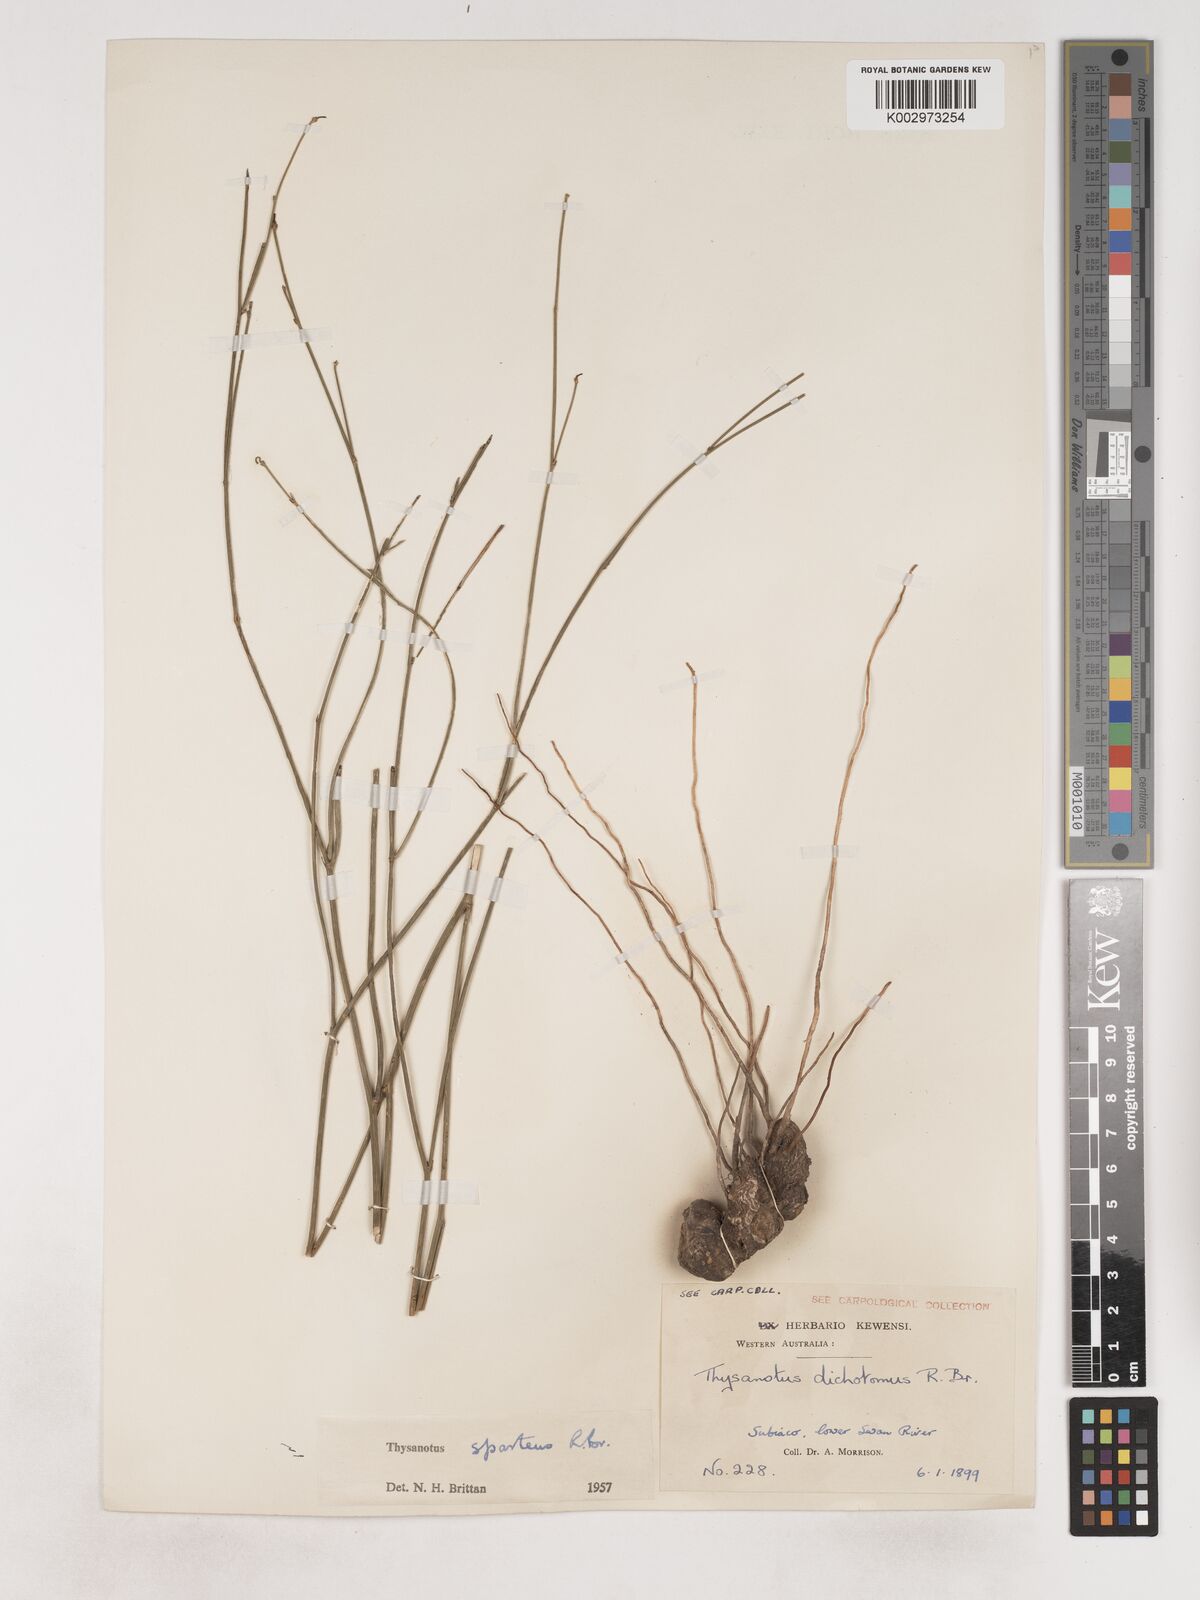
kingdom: Plantae
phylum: Tracheophyta
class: Liliopsida
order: Asparagales
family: Asparagaceae
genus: Thysanotus
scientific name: Thysanotus sparteus
